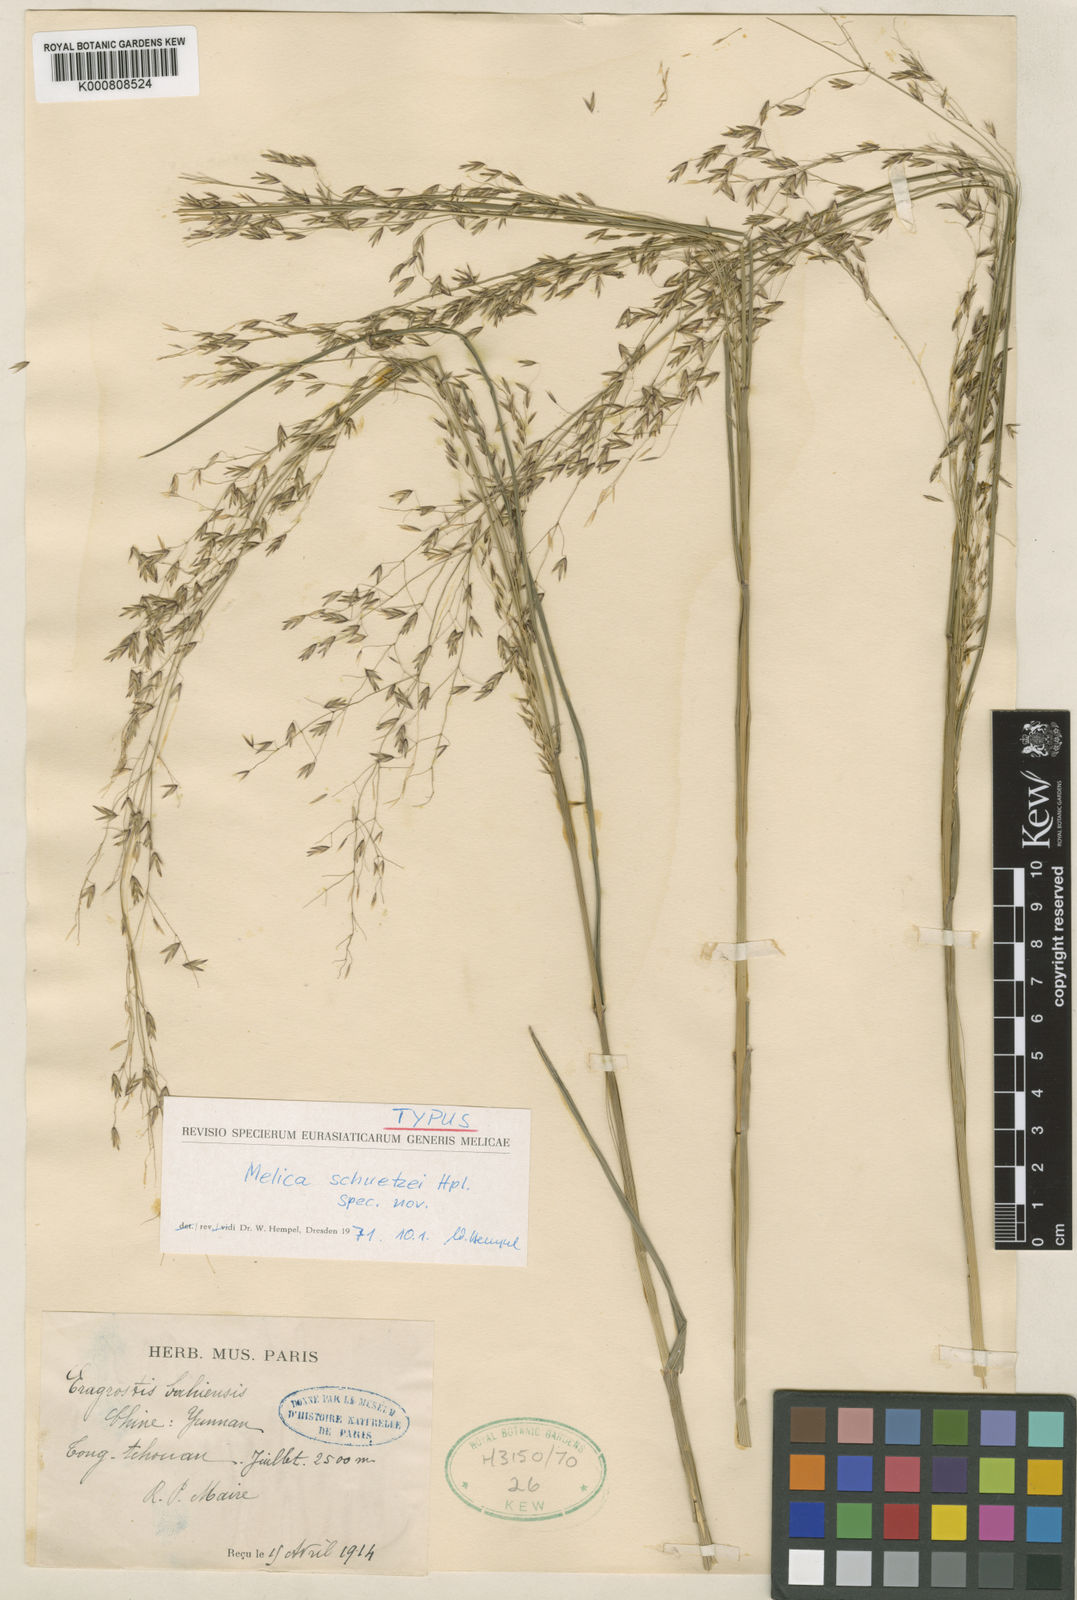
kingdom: Plantae
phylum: Tracheophyta
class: Liliopsida
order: Poales
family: Poaceae
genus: Melica
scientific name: Melica schuetzeana
